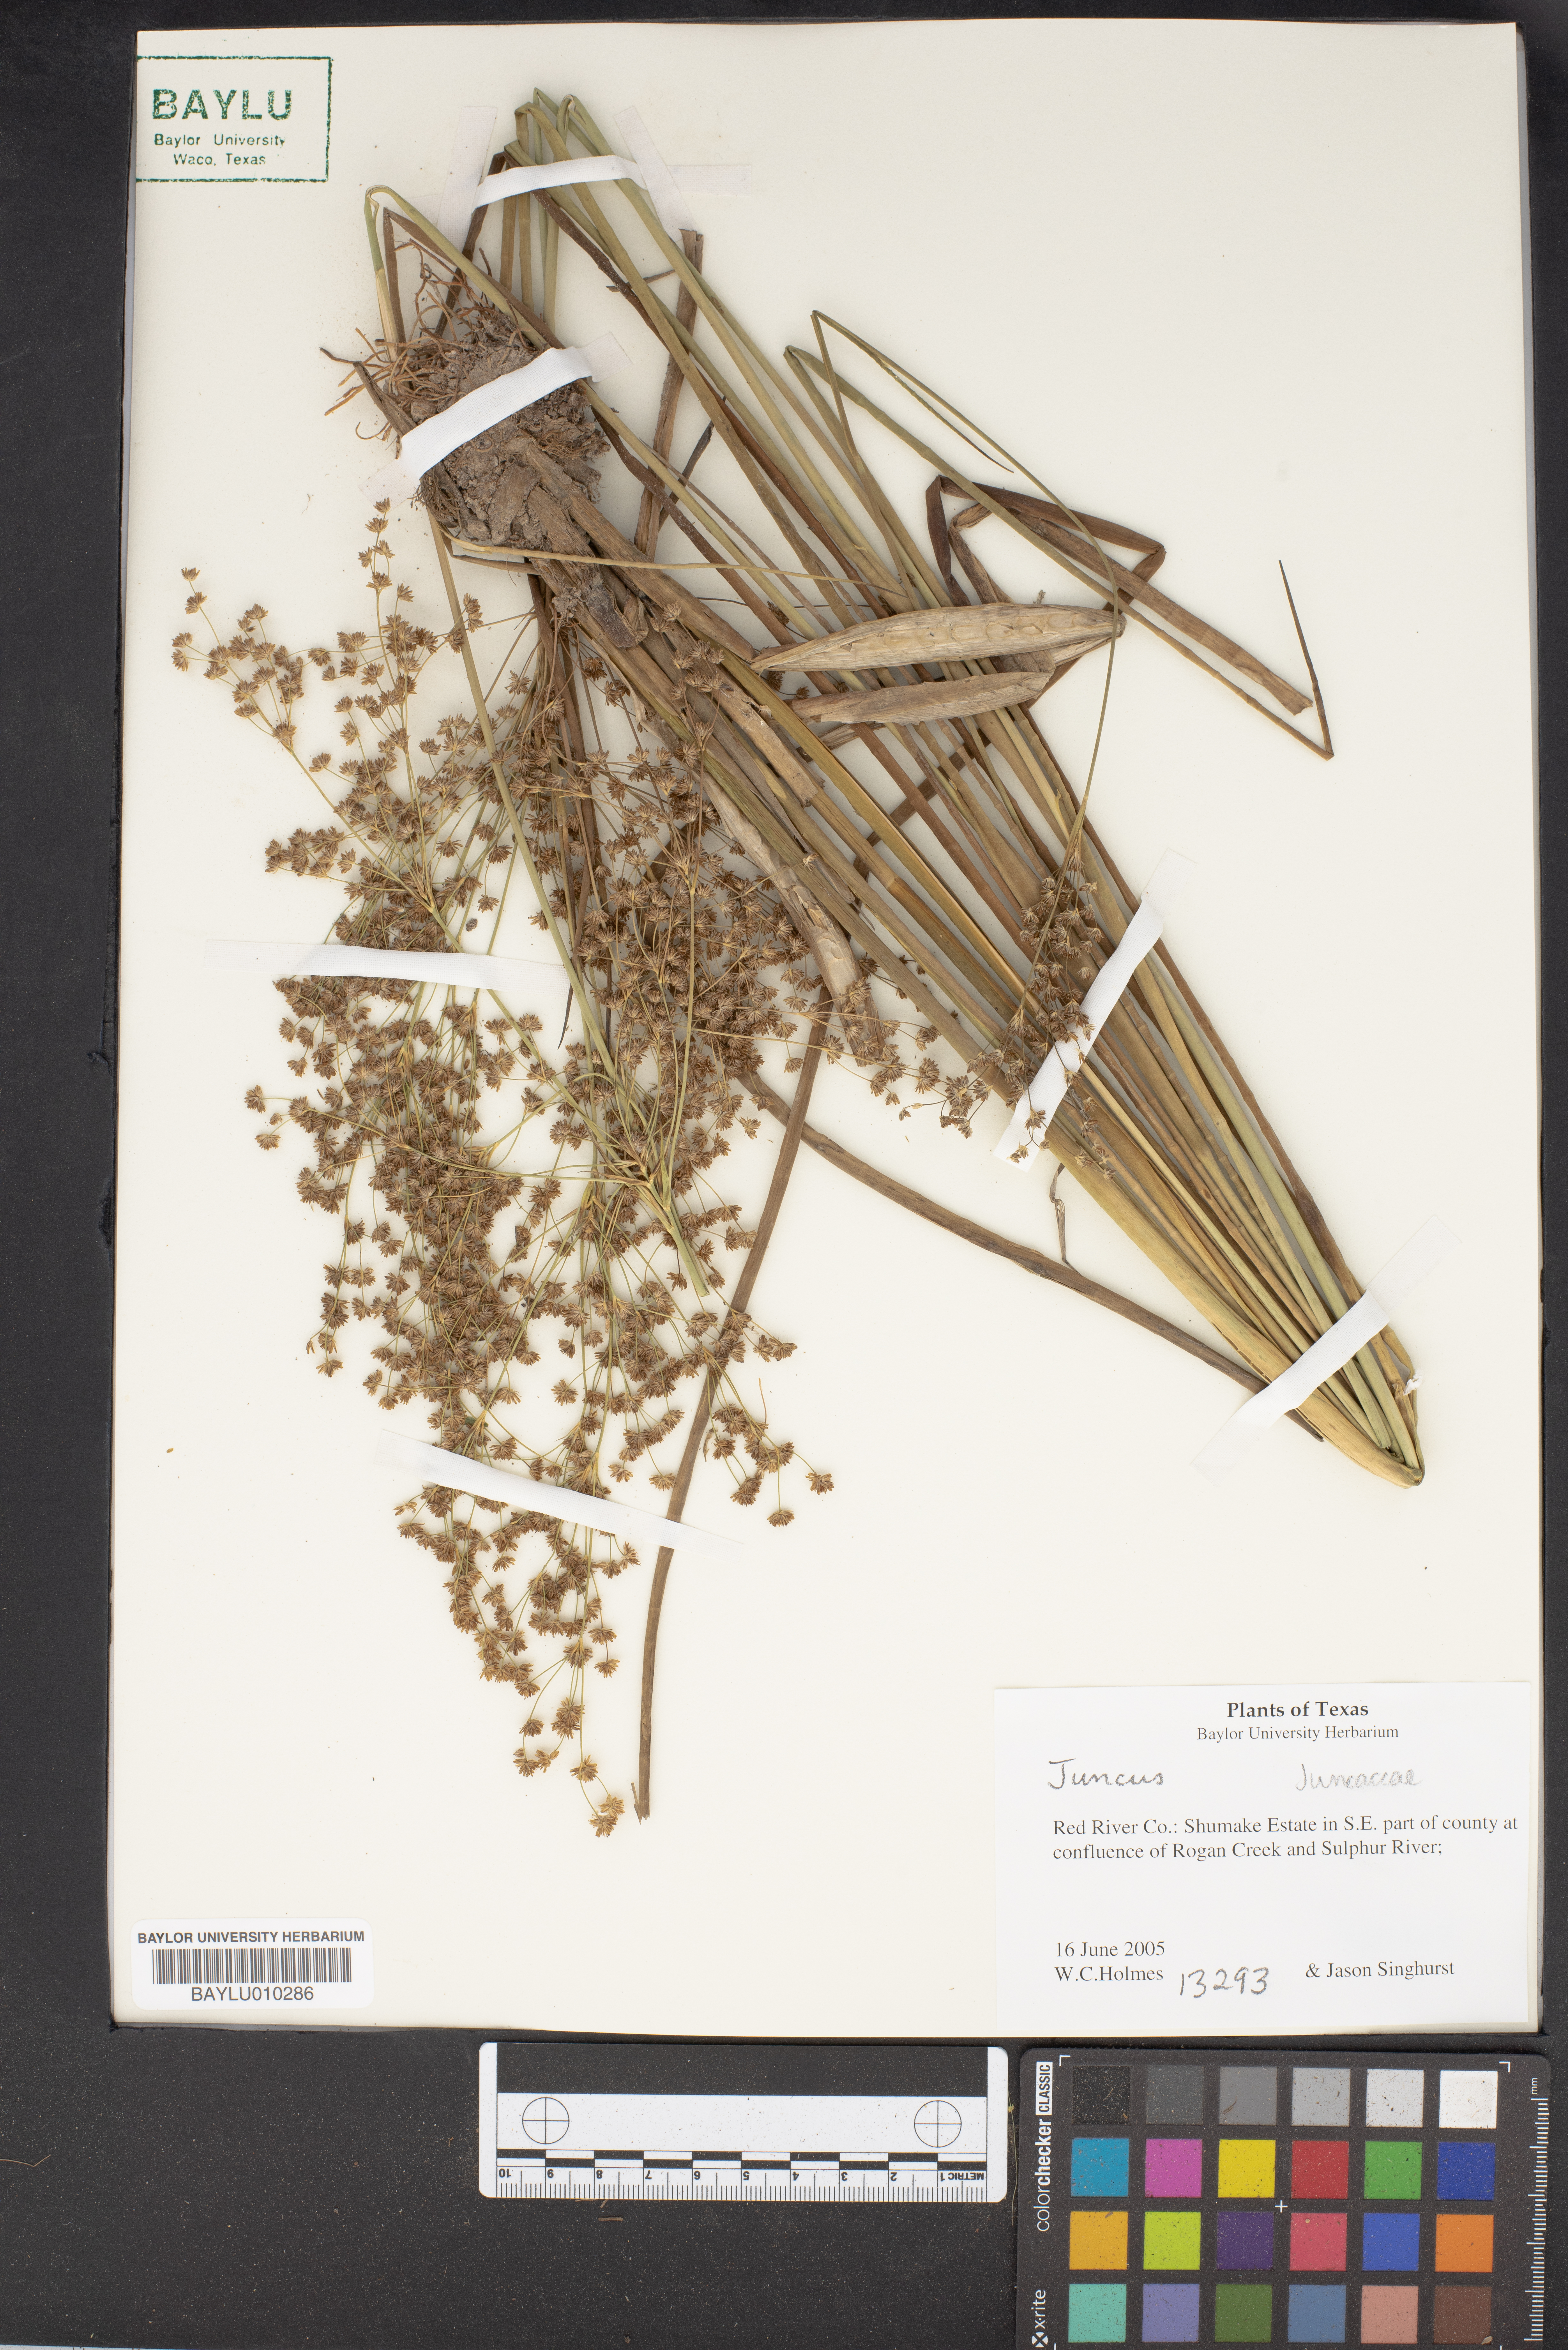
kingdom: Plantae
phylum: Tracheophyta
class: Liliopsida
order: Poales
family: Juncaceae
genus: Juncus
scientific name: Juncus
